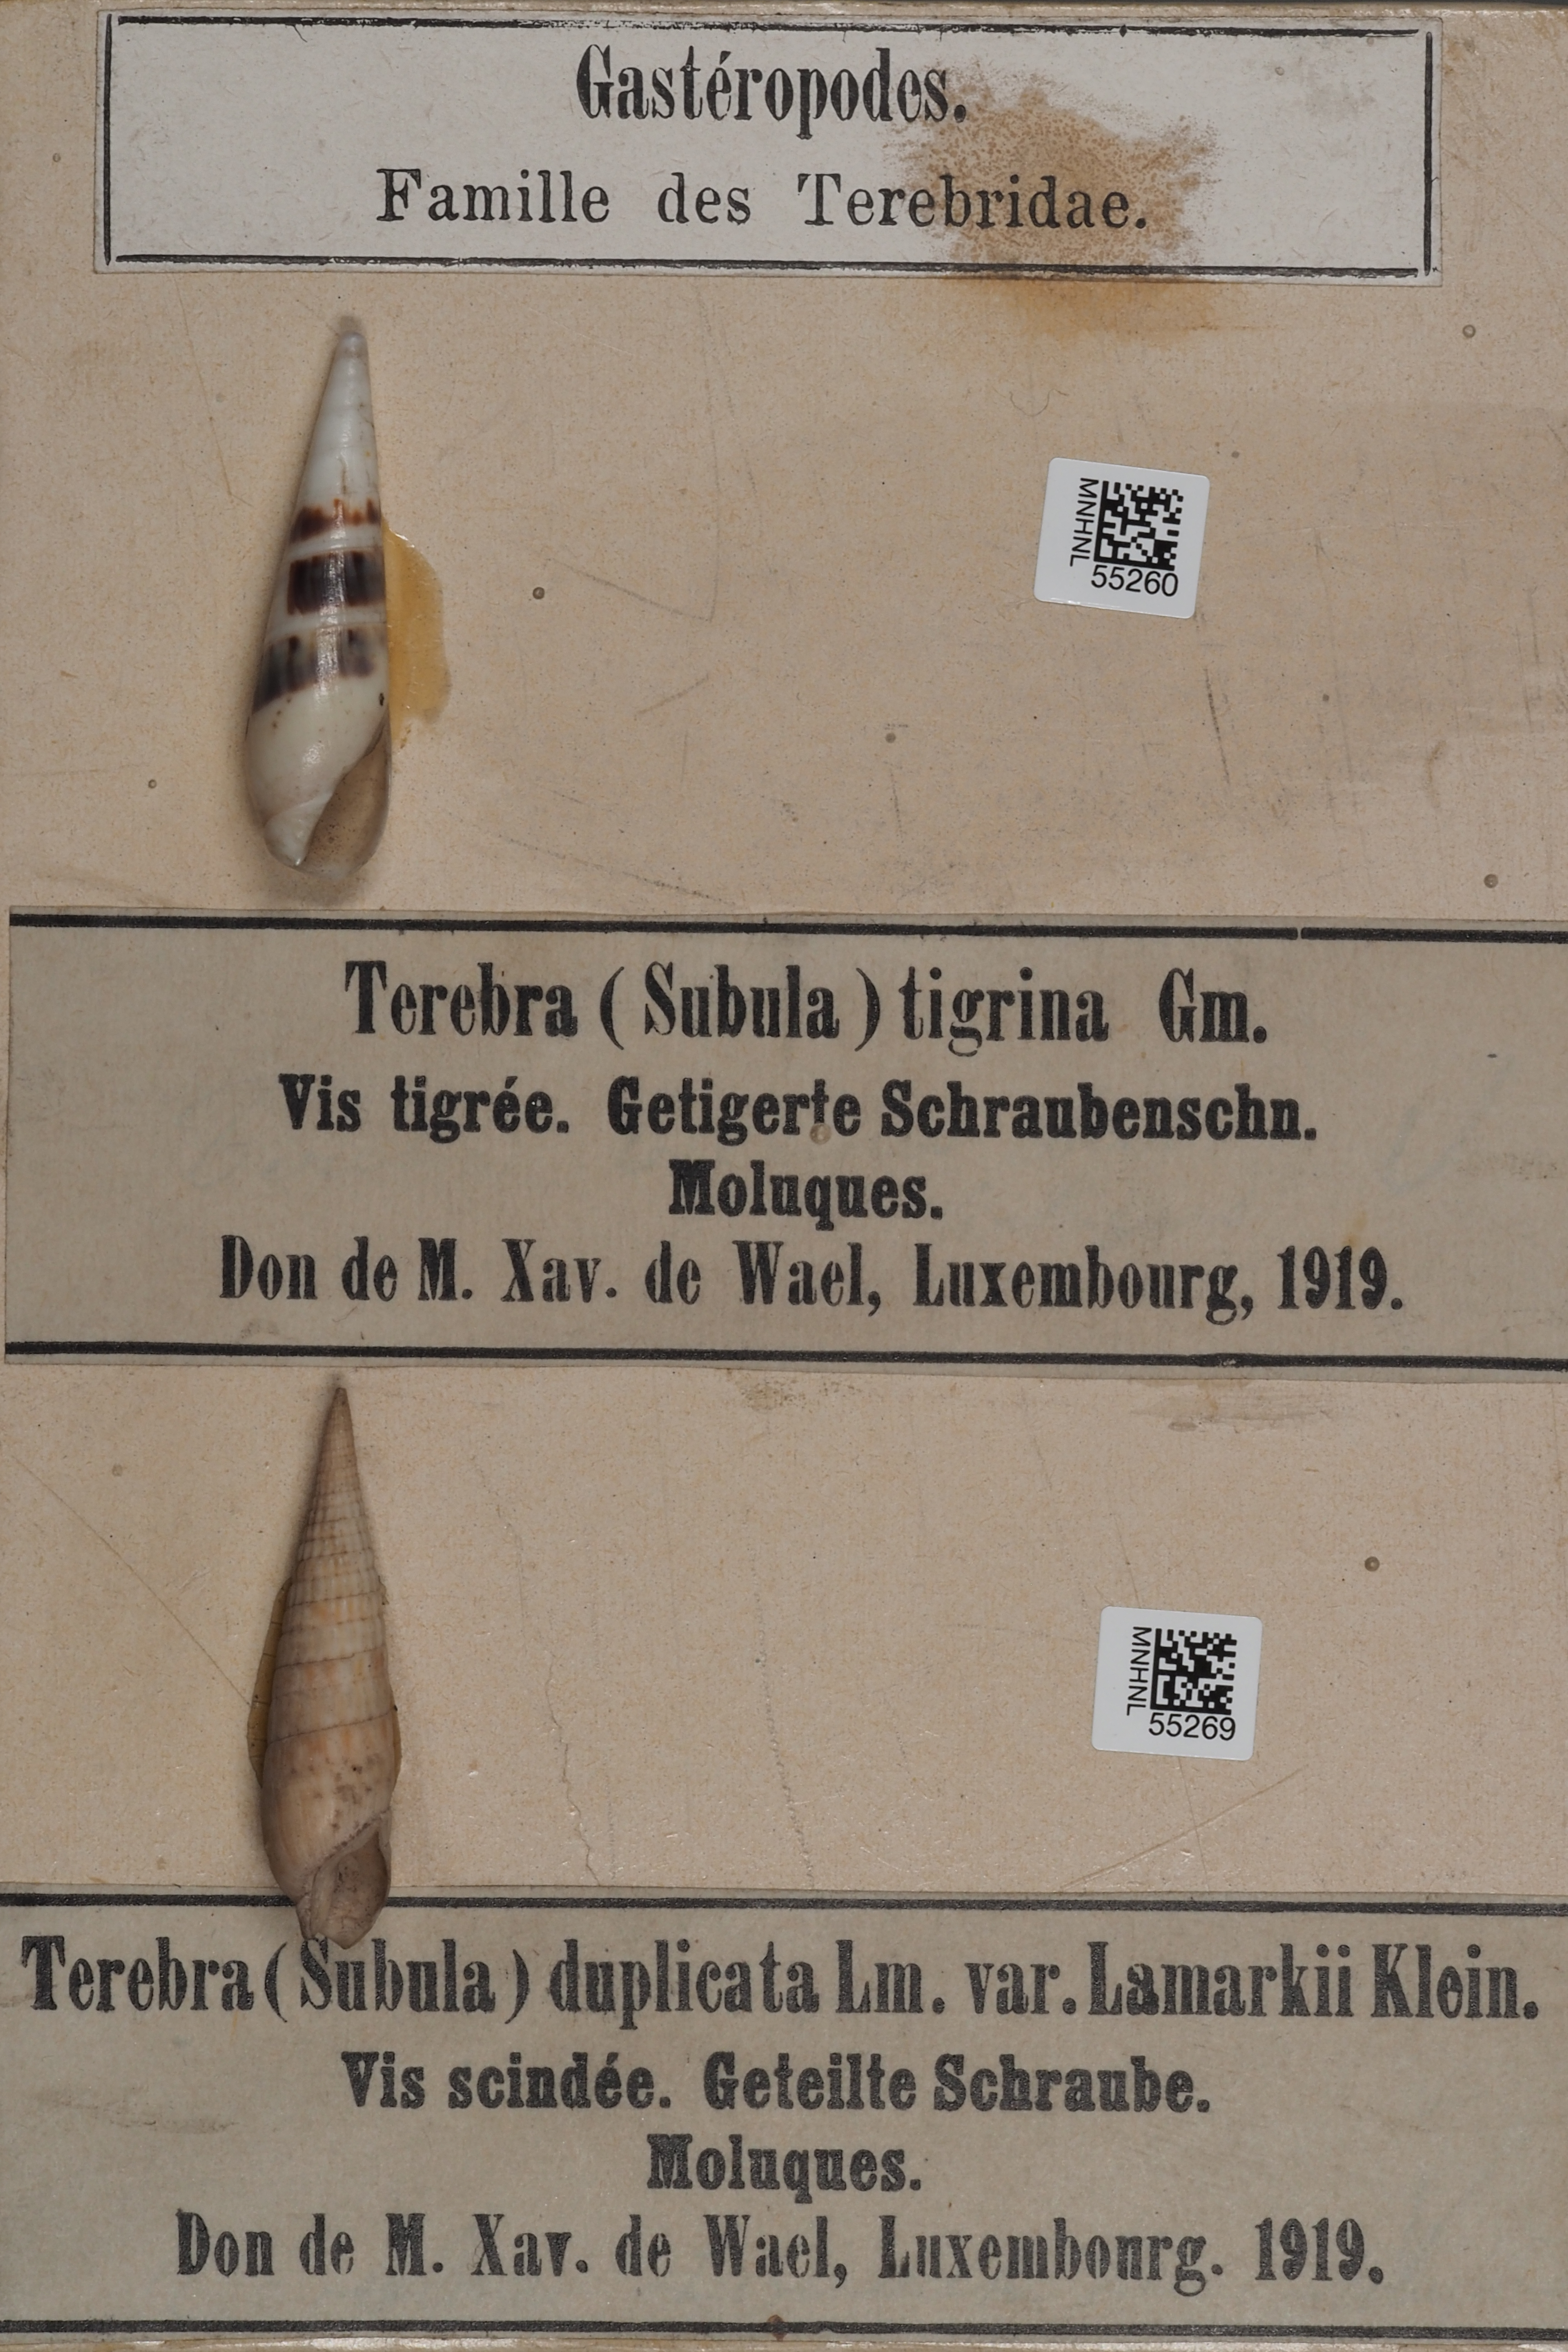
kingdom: Animalia
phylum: Mollusca
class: Gastropoda
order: Neogastropoda
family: Terebridae
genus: Oxymeris
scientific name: Oxymeris felina
